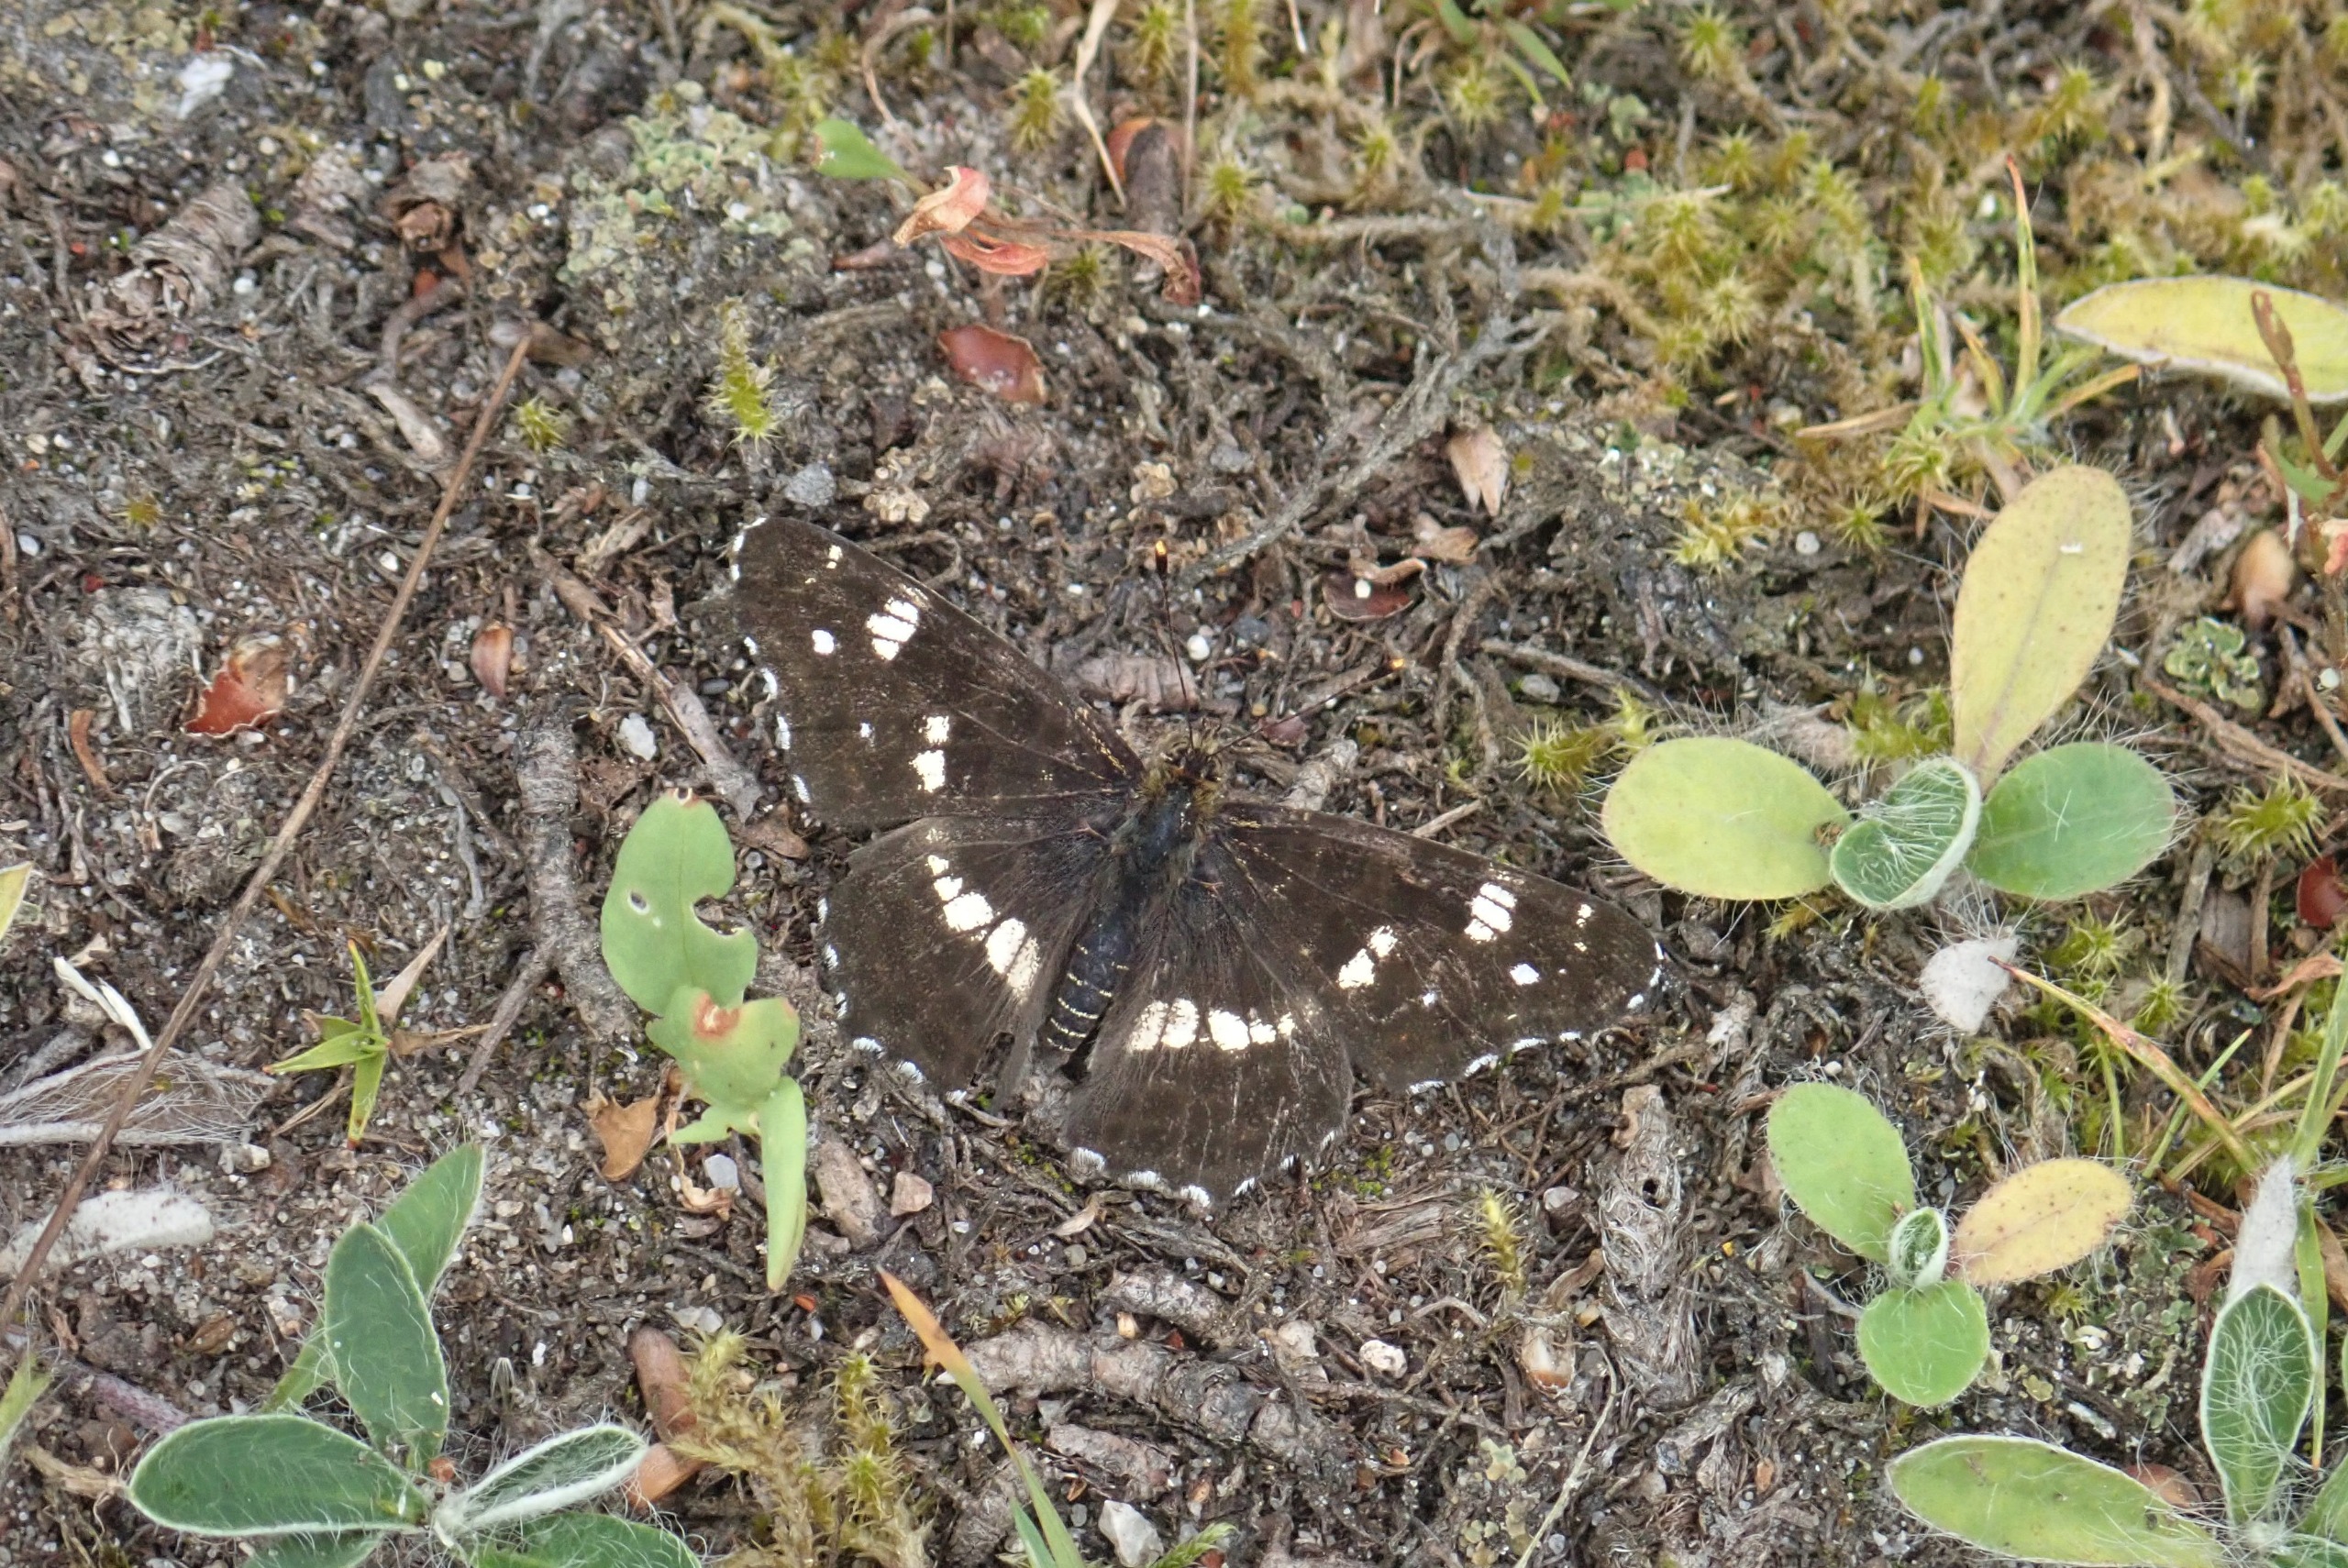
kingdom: Animalia
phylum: Arthropoda
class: Insecta
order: Lepidoptera
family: Nymphalidae
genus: Ladoga
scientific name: Ladoga camilla
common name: Hvid admiral
